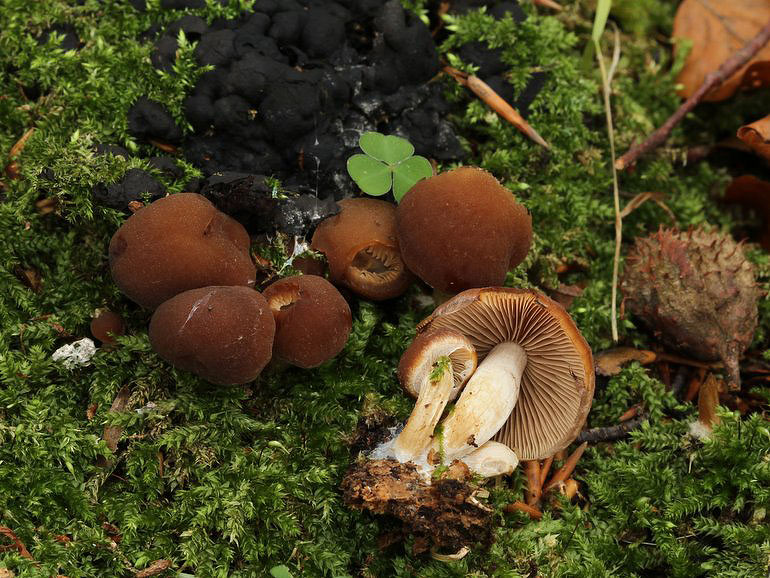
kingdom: Fungi
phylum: Basidiomycota
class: Agaricomycetes
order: Agaricales
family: Psathyrellaceae
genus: Psathyrella
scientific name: Psathyrella piluliformis
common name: lysstokket mørkhat
